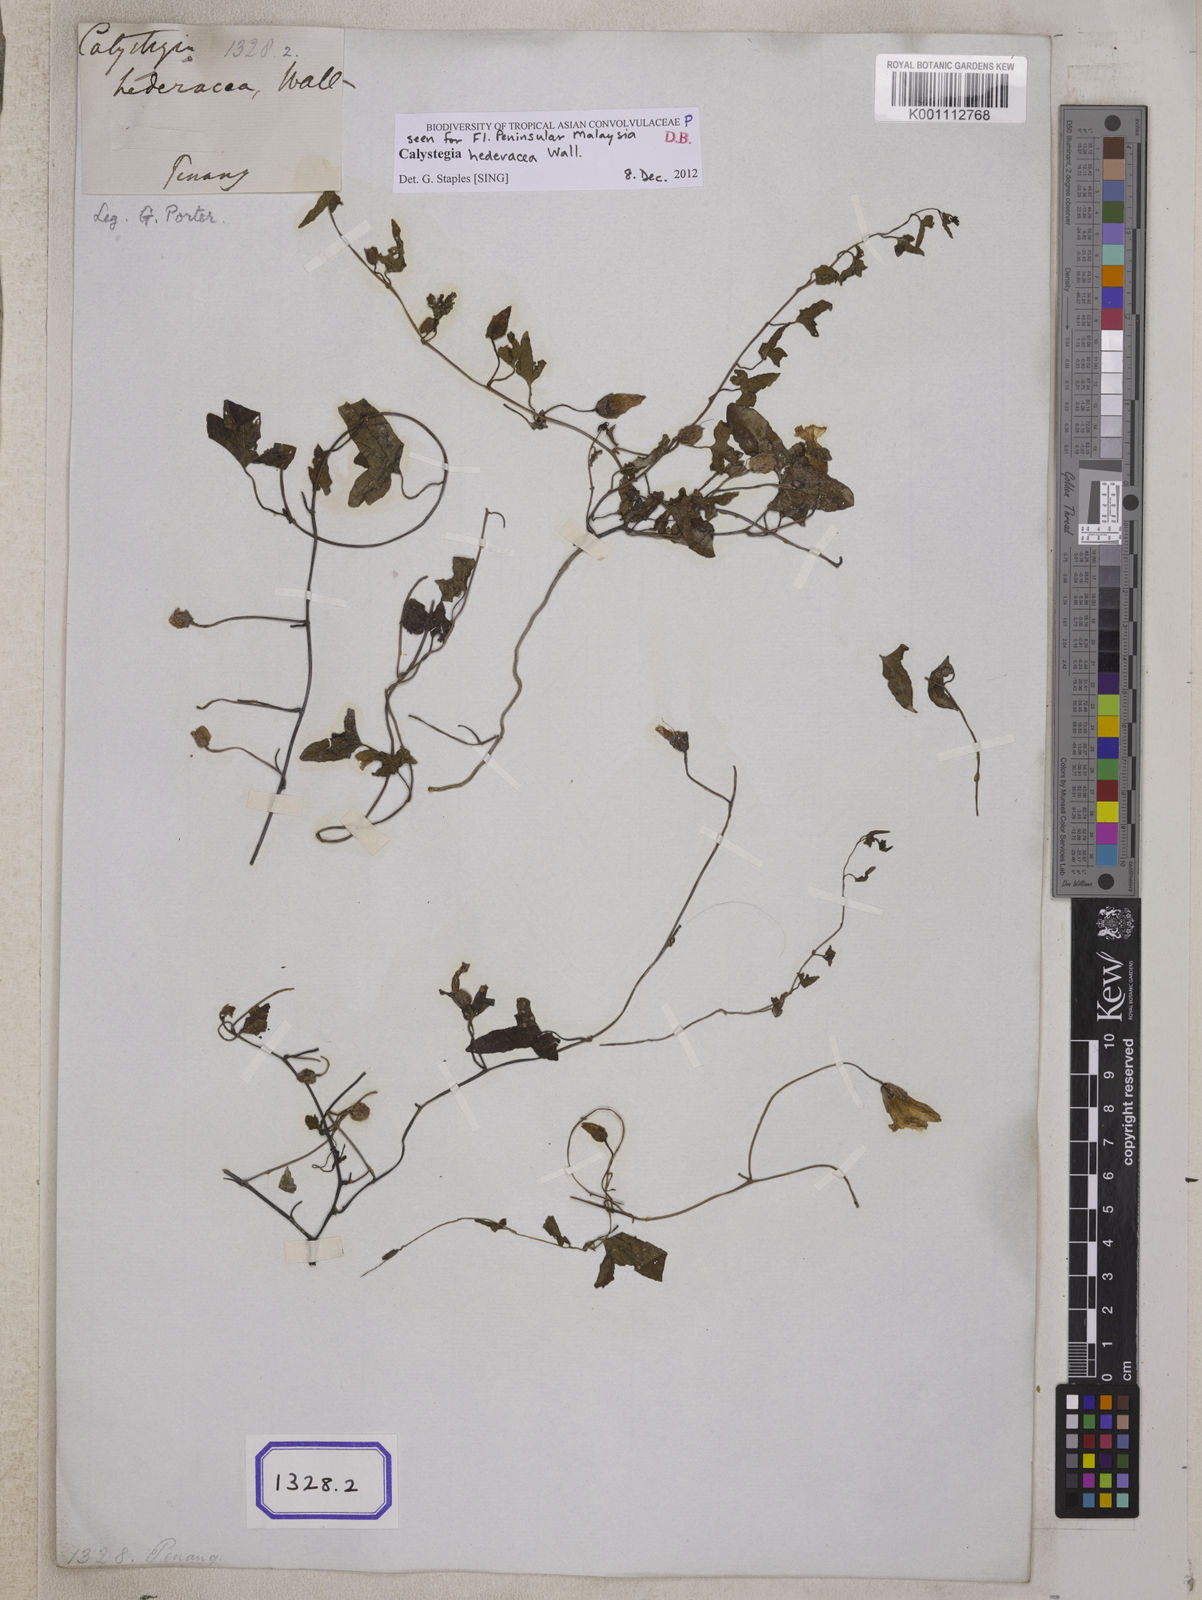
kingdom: Plantae
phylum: Tracheophyta
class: Magnoliopsida
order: Solanales
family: Convolvulaceae
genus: Calystegia
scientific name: Calystegia hederacea
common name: Japanese false bindweed
